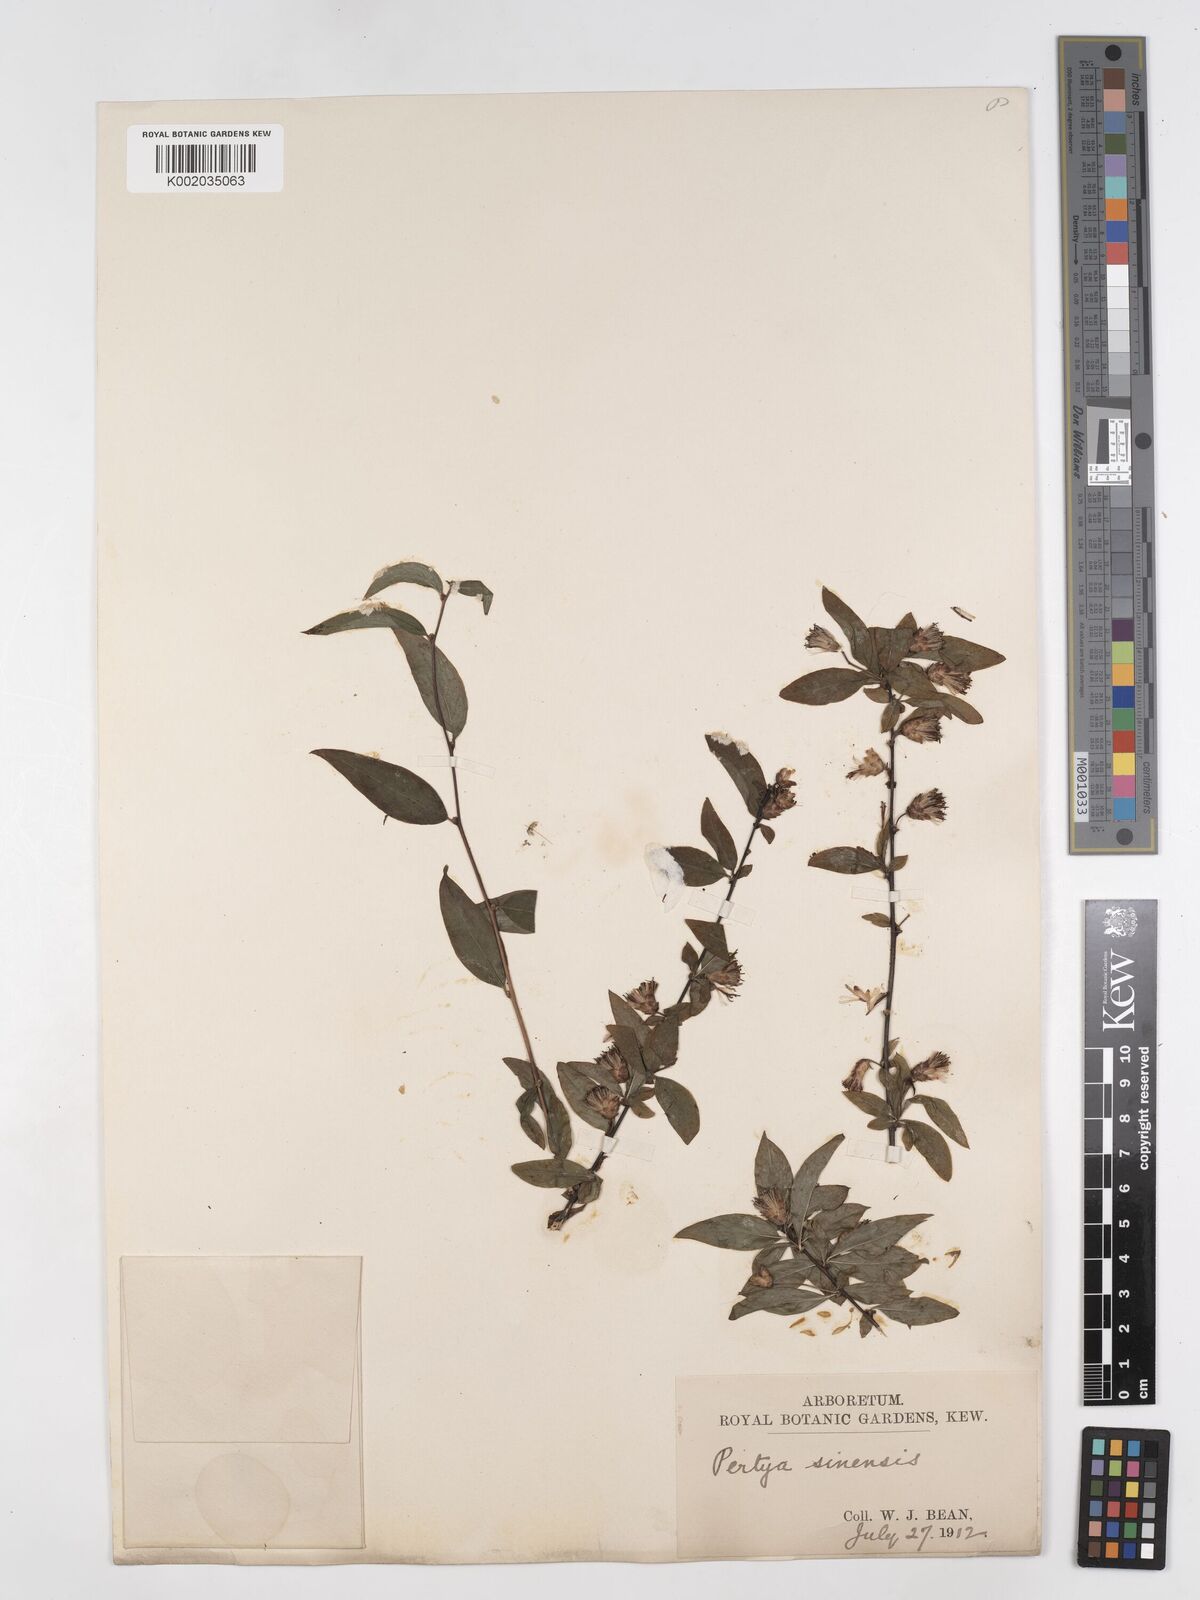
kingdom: Plantae
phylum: Tracheophyta
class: Magnoliopsida
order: Asterales
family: Asteraceae
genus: Pertya
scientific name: Pertya sinensis
